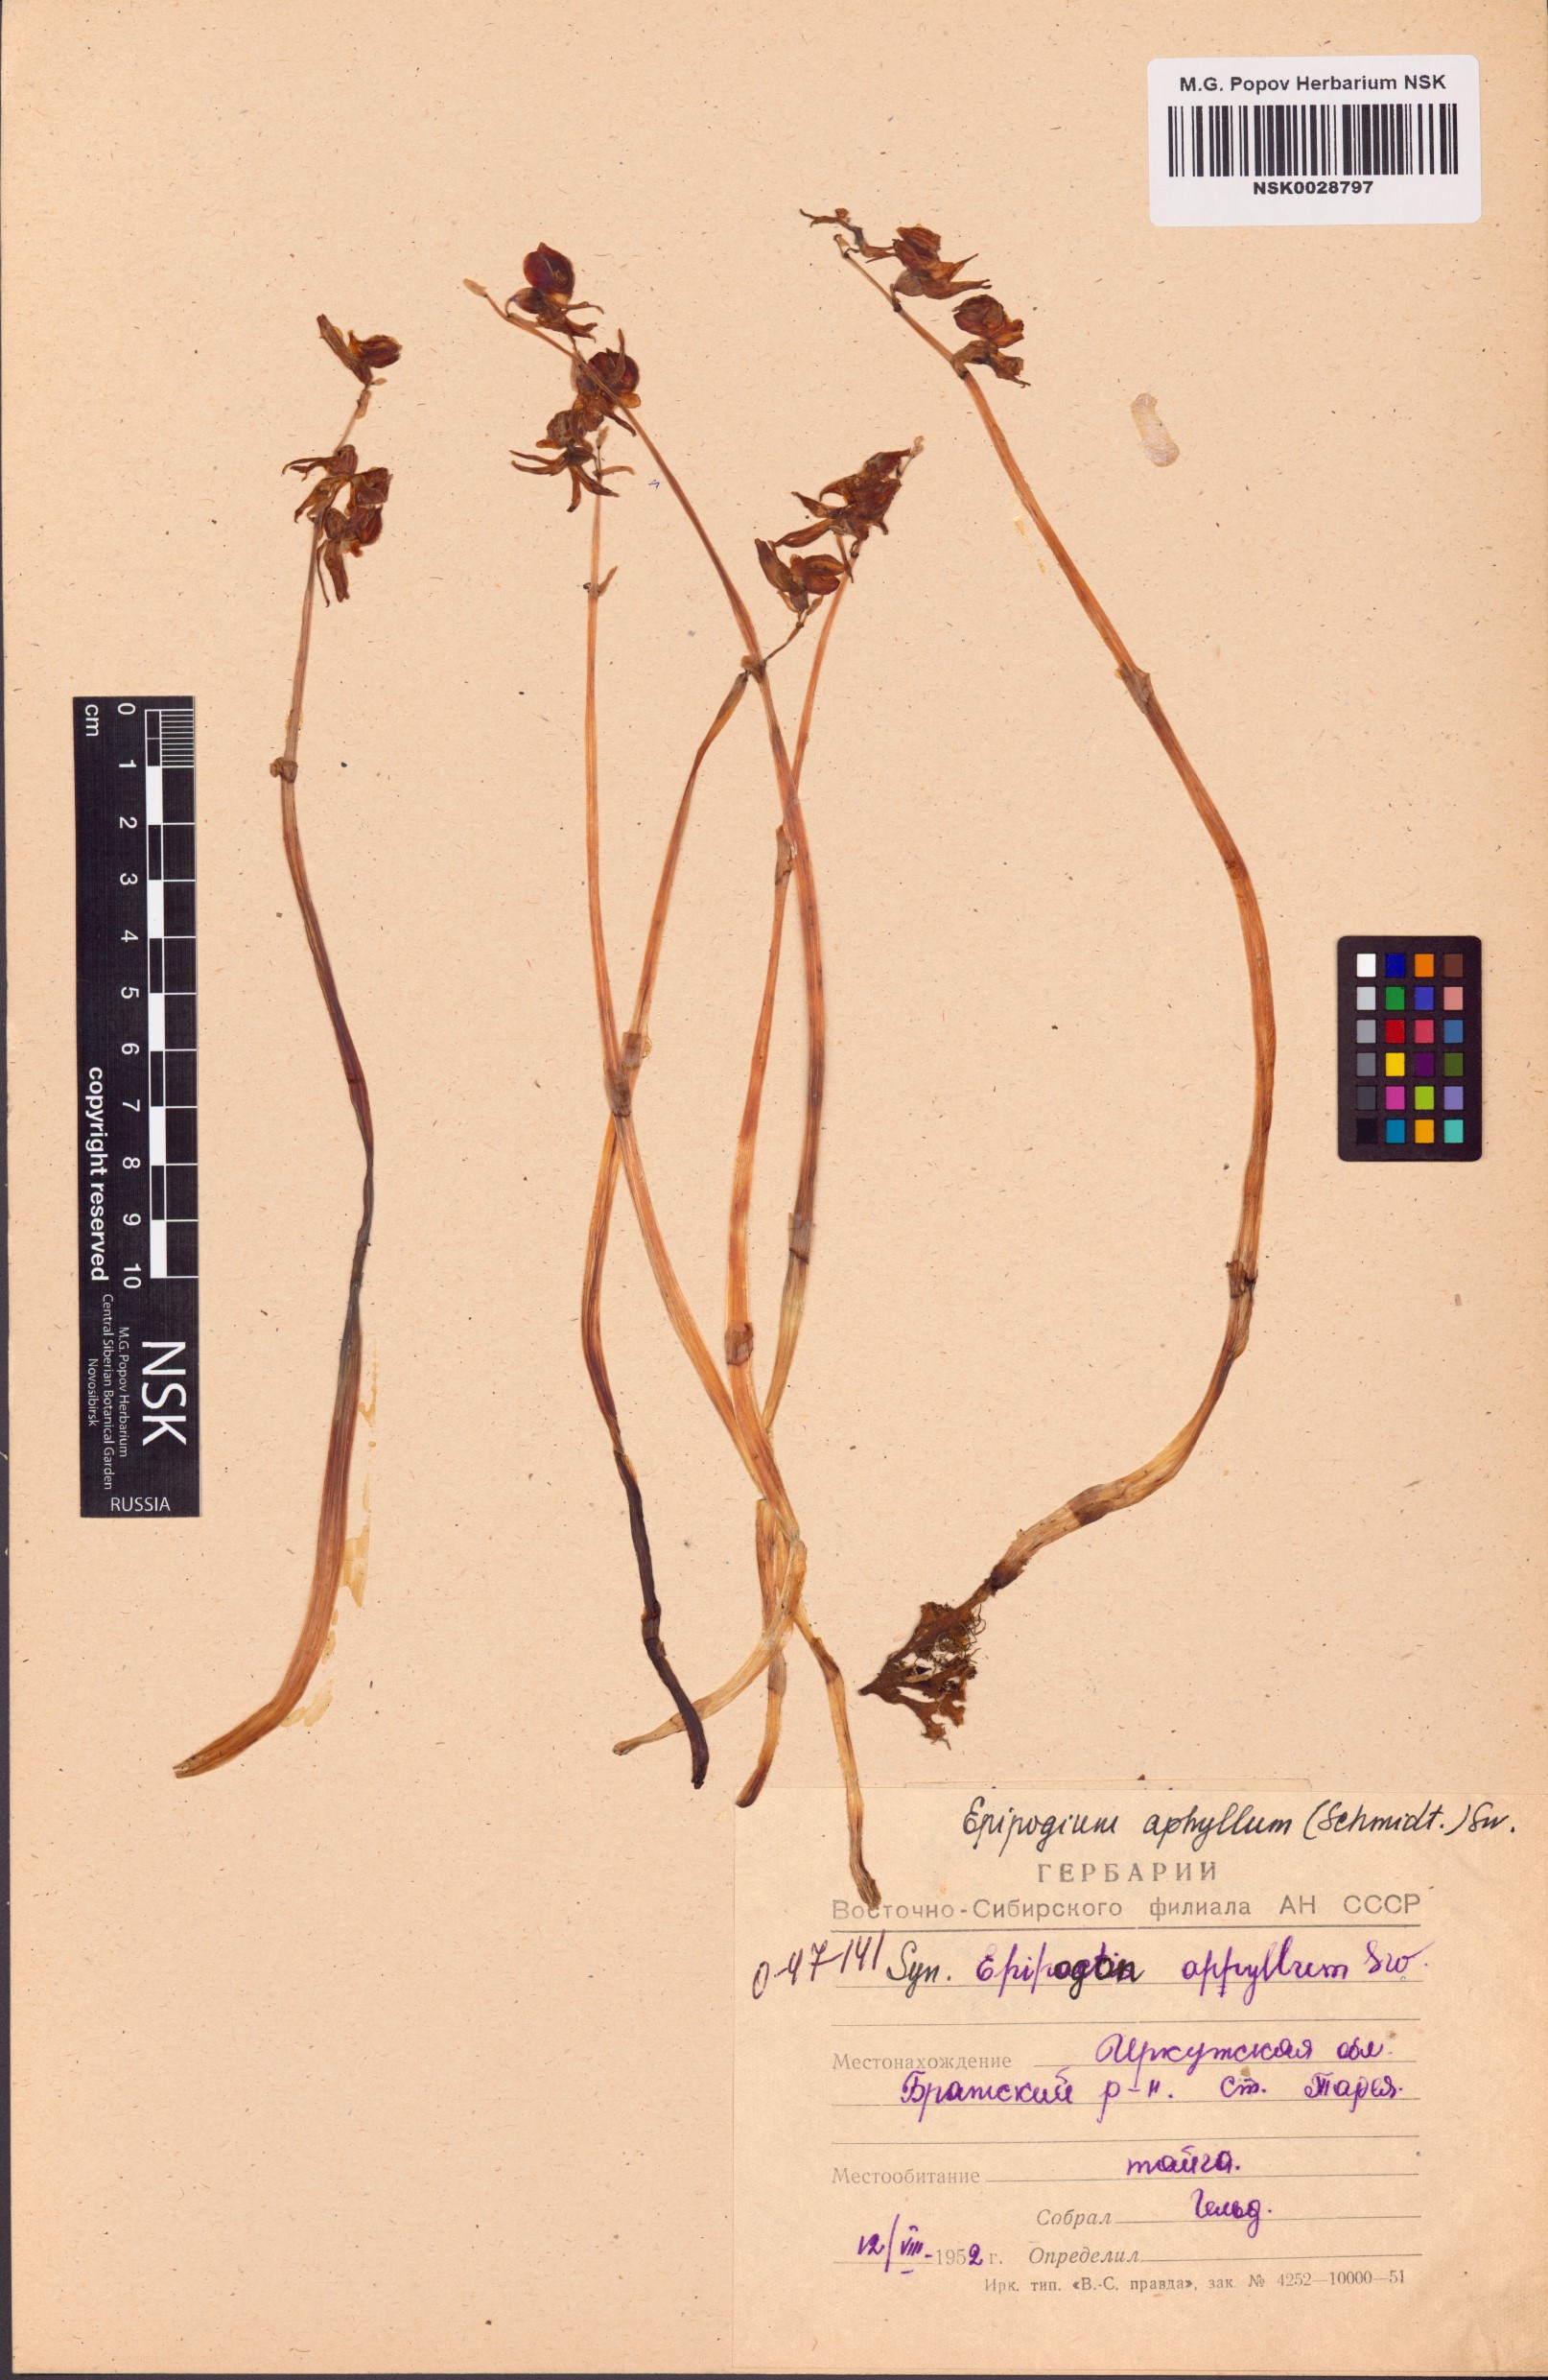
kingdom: Plantae
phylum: Tracheophyta
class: Liliopsida
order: Asparagales
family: Orchidaceae
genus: Epipogium
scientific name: Epipogium aphyllum
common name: Ghost orchid
